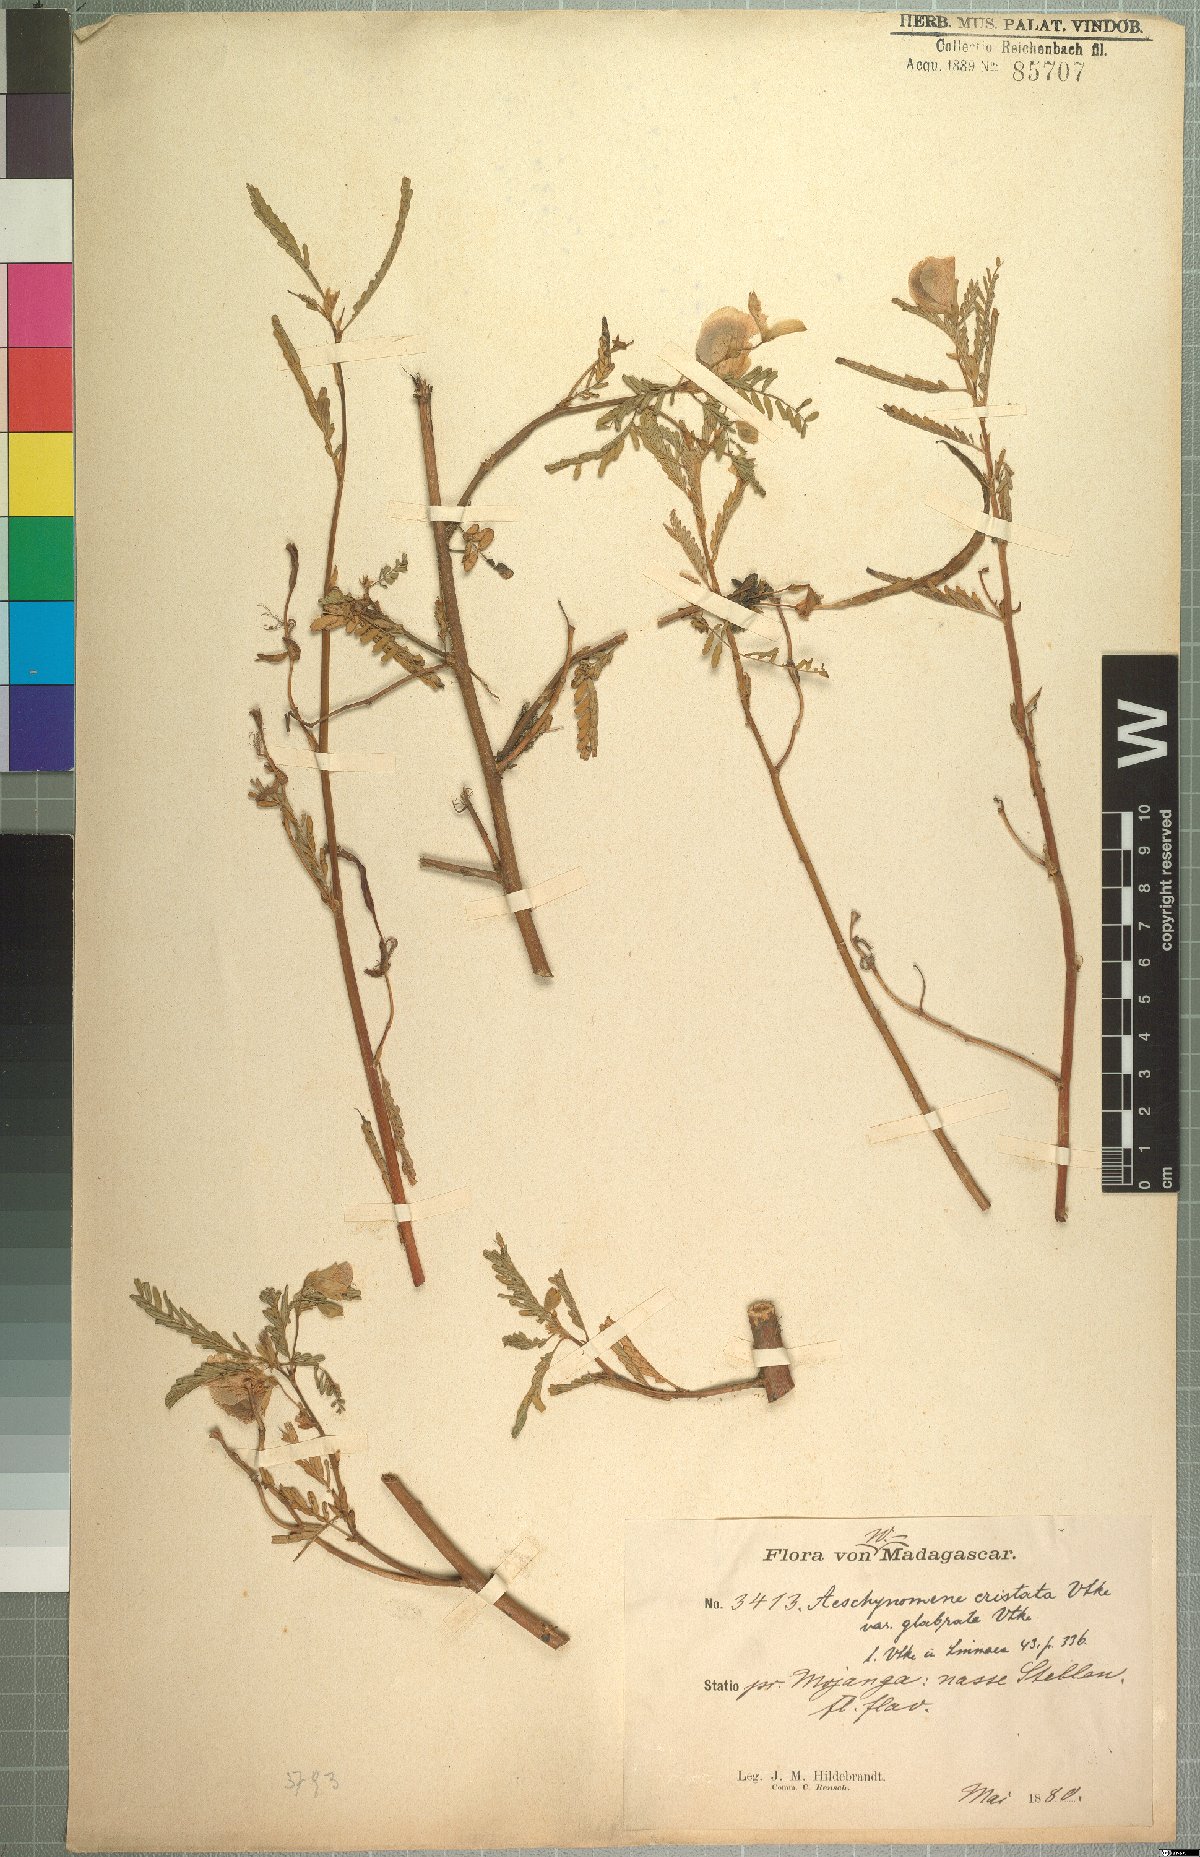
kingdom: Plantae
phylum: Tracheophyta
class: Magnoliopsida
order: Fabales
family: Fabaceae
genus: Aeschynomene
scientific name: Aeschynomene cristata
